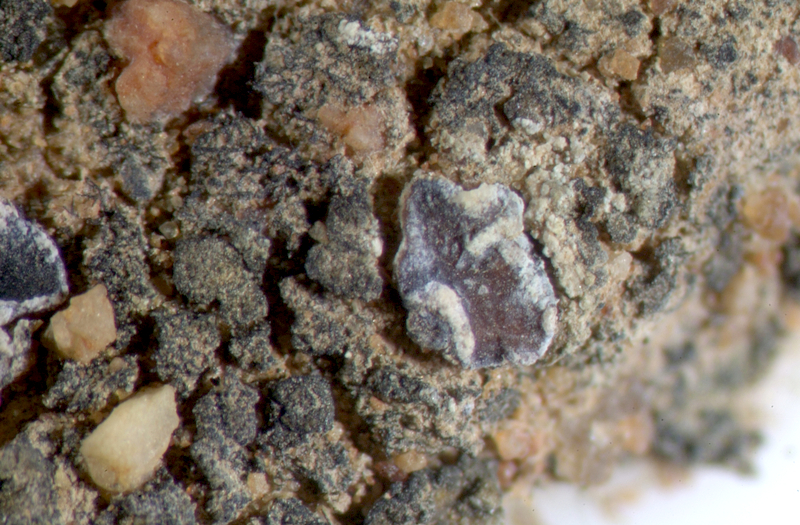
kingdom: Fungi
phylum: Ascomycota
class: Lichinomycetes
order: Lichinales
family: Peltulaceae
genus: Peltula
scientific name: Peltula patellata
